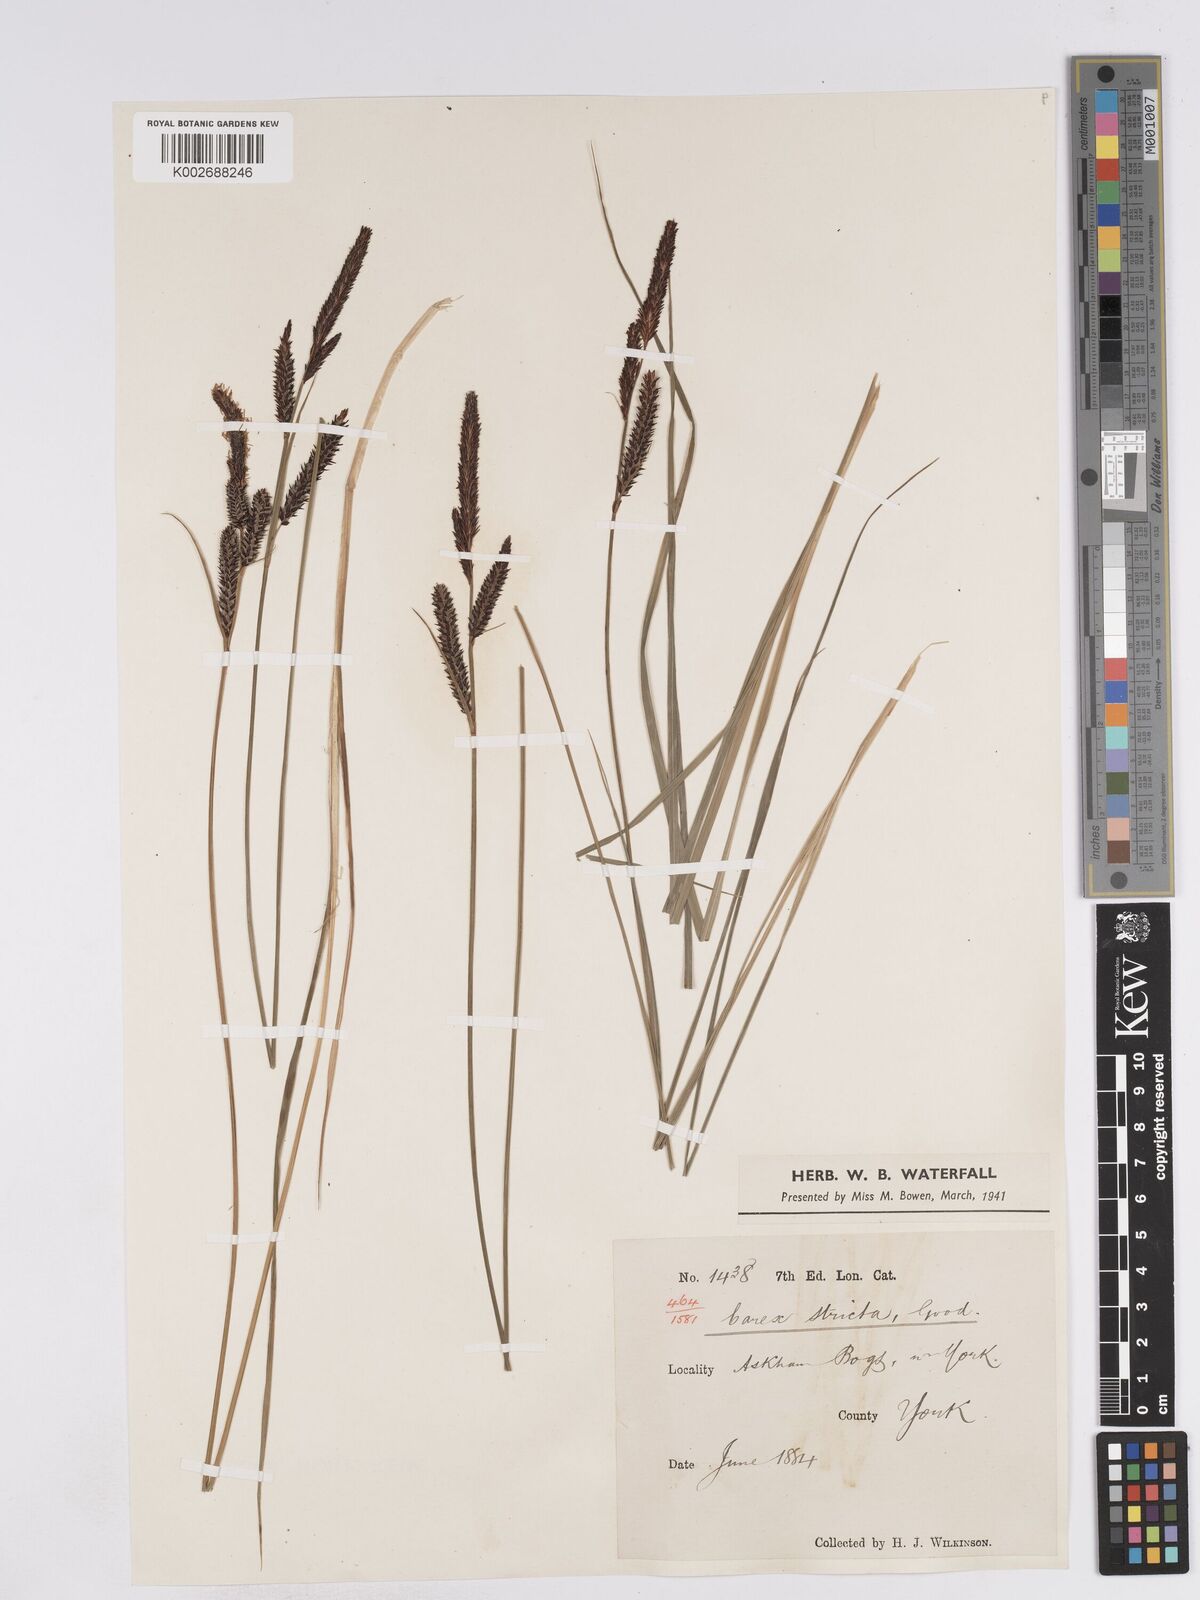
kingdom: Plantae
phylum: Tracheophyta
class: Liliopsida
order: Poales
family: Cyperaceae
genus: Carex
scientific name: Carex elata
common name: Tufted sedge
